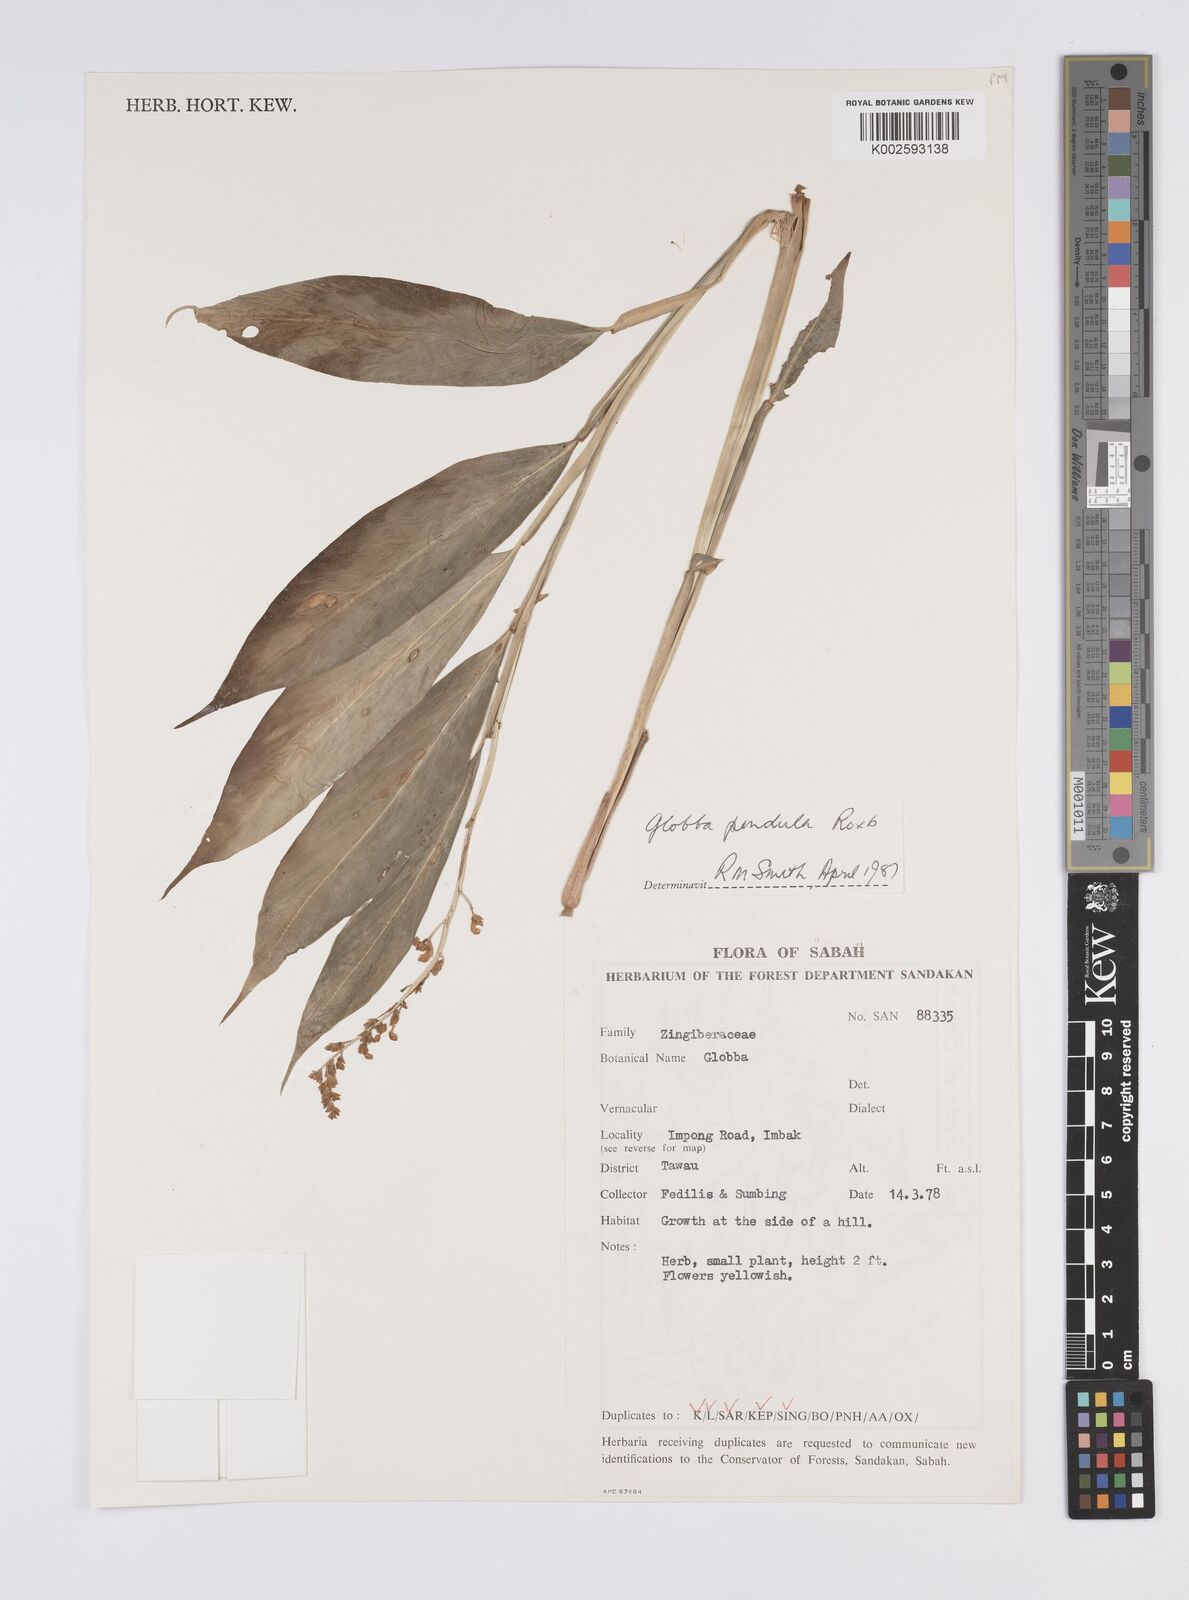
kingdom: Plantae
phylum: Tracheophyta
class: Liliopsida
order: Zingiberales
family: Zingiberaceae
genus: Globba
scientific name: Globba pendula
